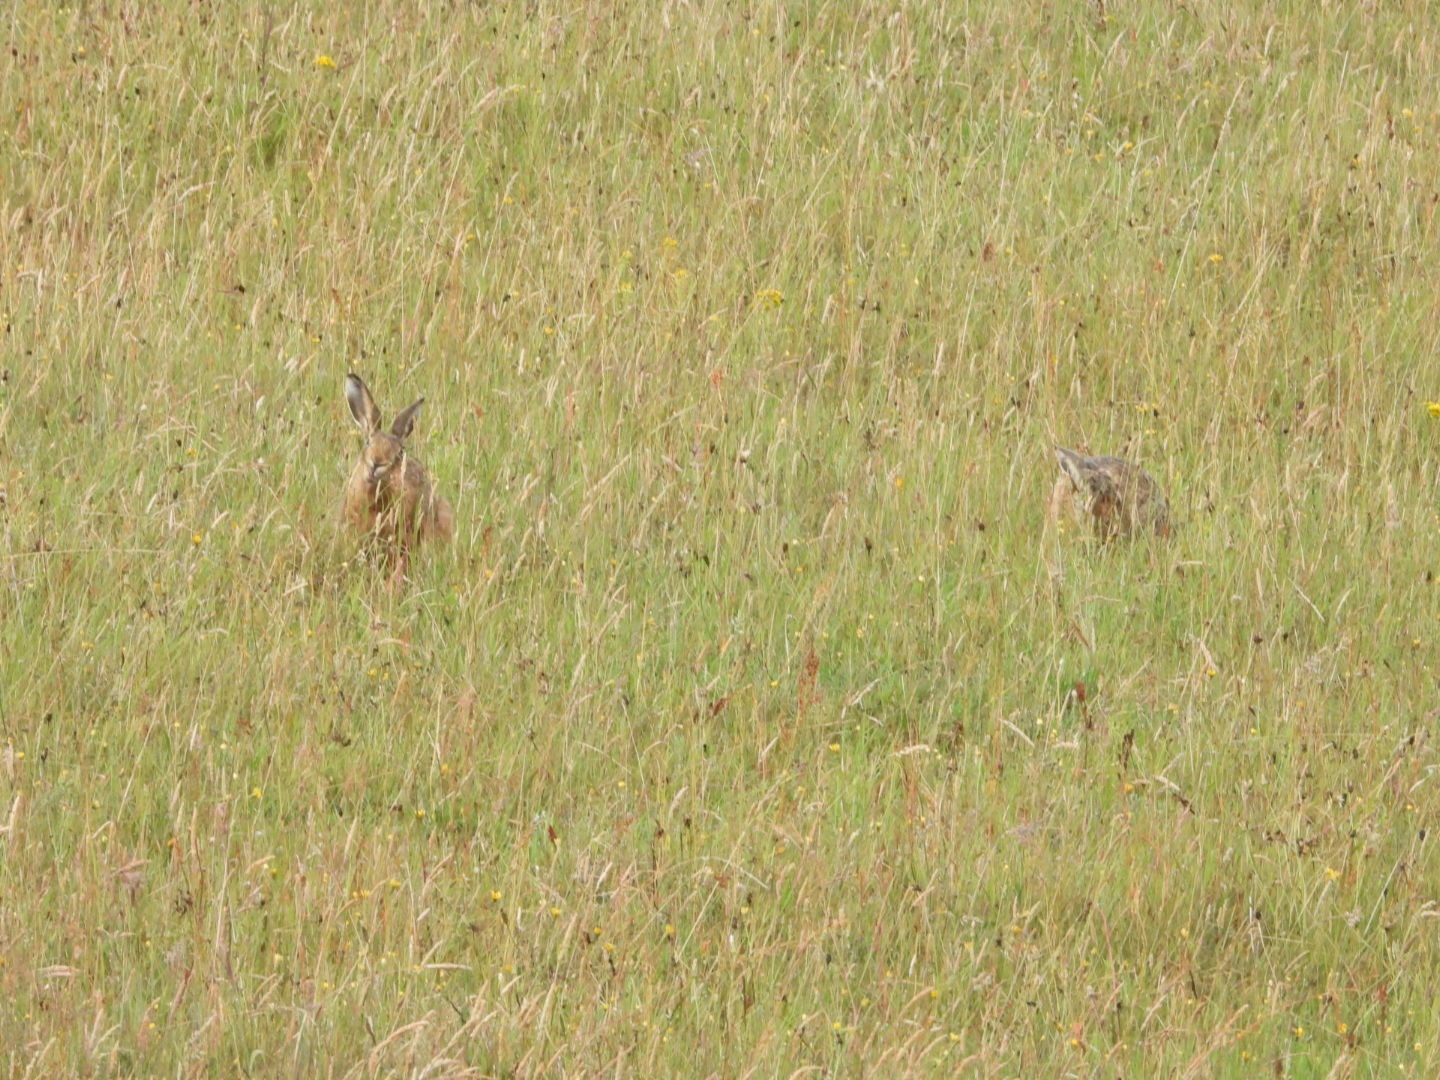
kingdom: Animalia
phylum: Chordata
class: Mammalia
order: Lagomorpha
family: Leporidae
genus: Lepus
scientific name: Lepus europaeus
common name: Hare
